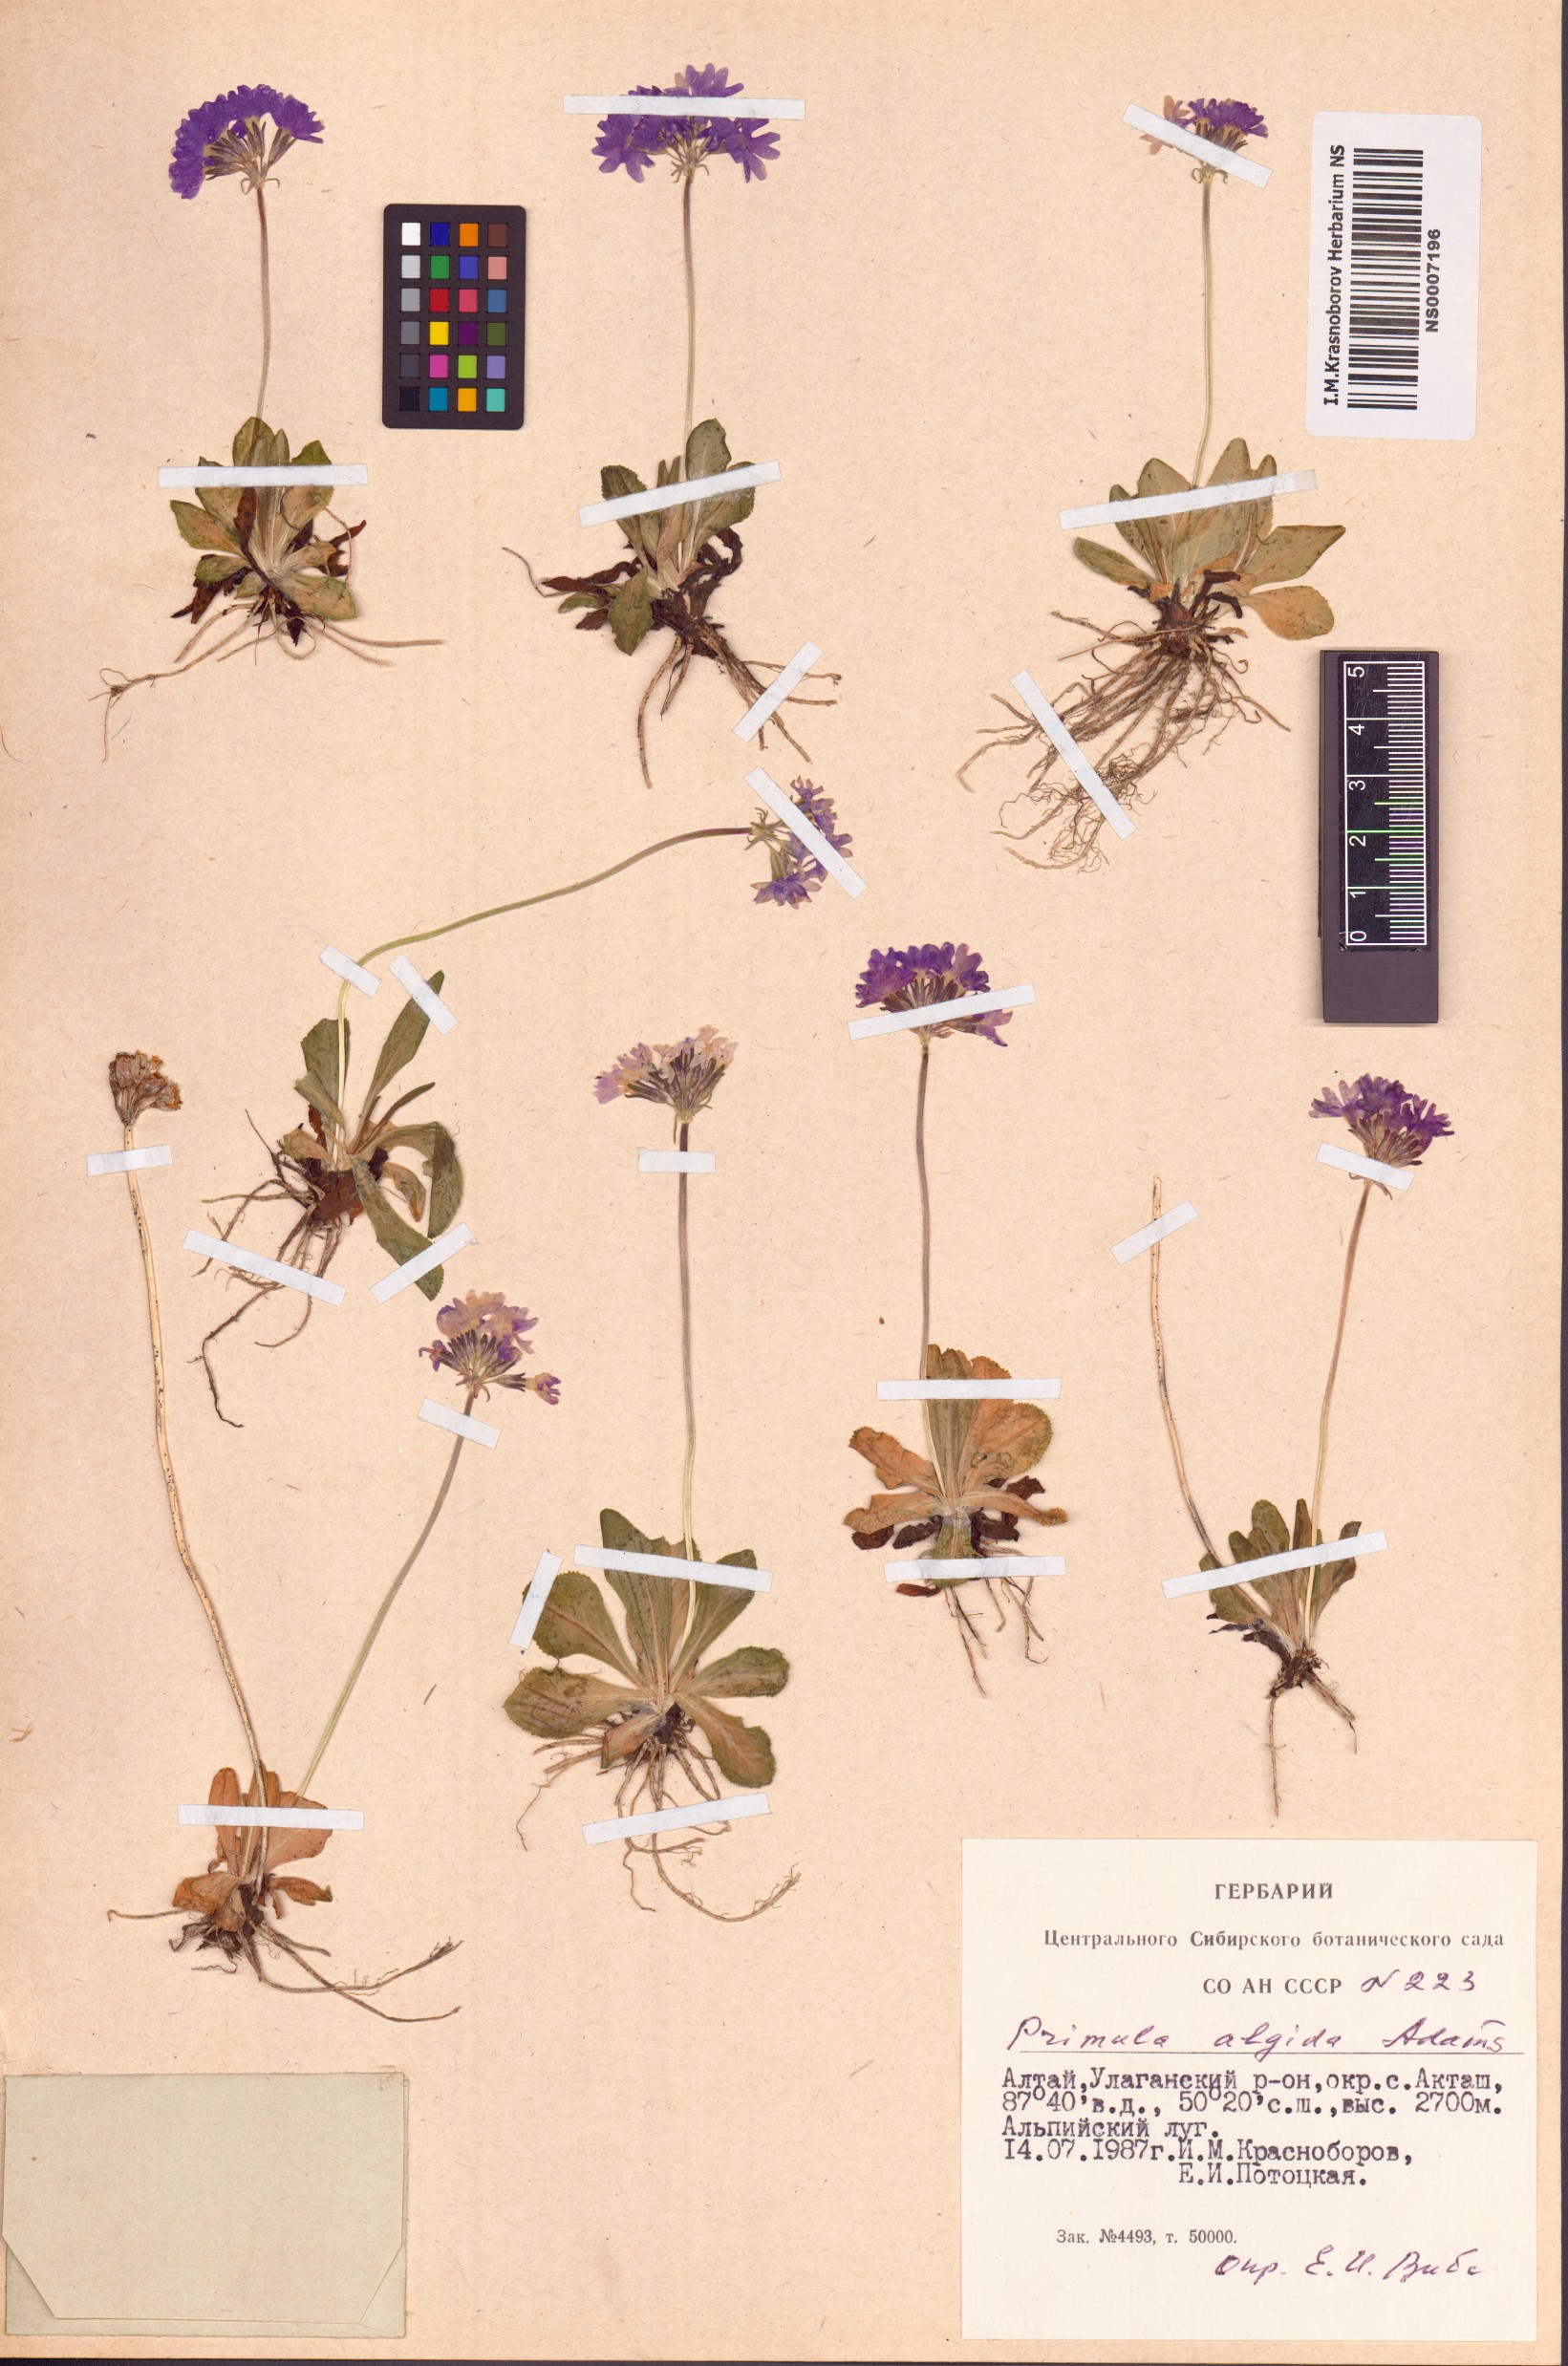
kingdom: Plantae
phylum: Tracheophyta
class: Magnoliopsida
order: Ericales
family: Primulaceae
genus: Primula
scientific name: Primula algida
